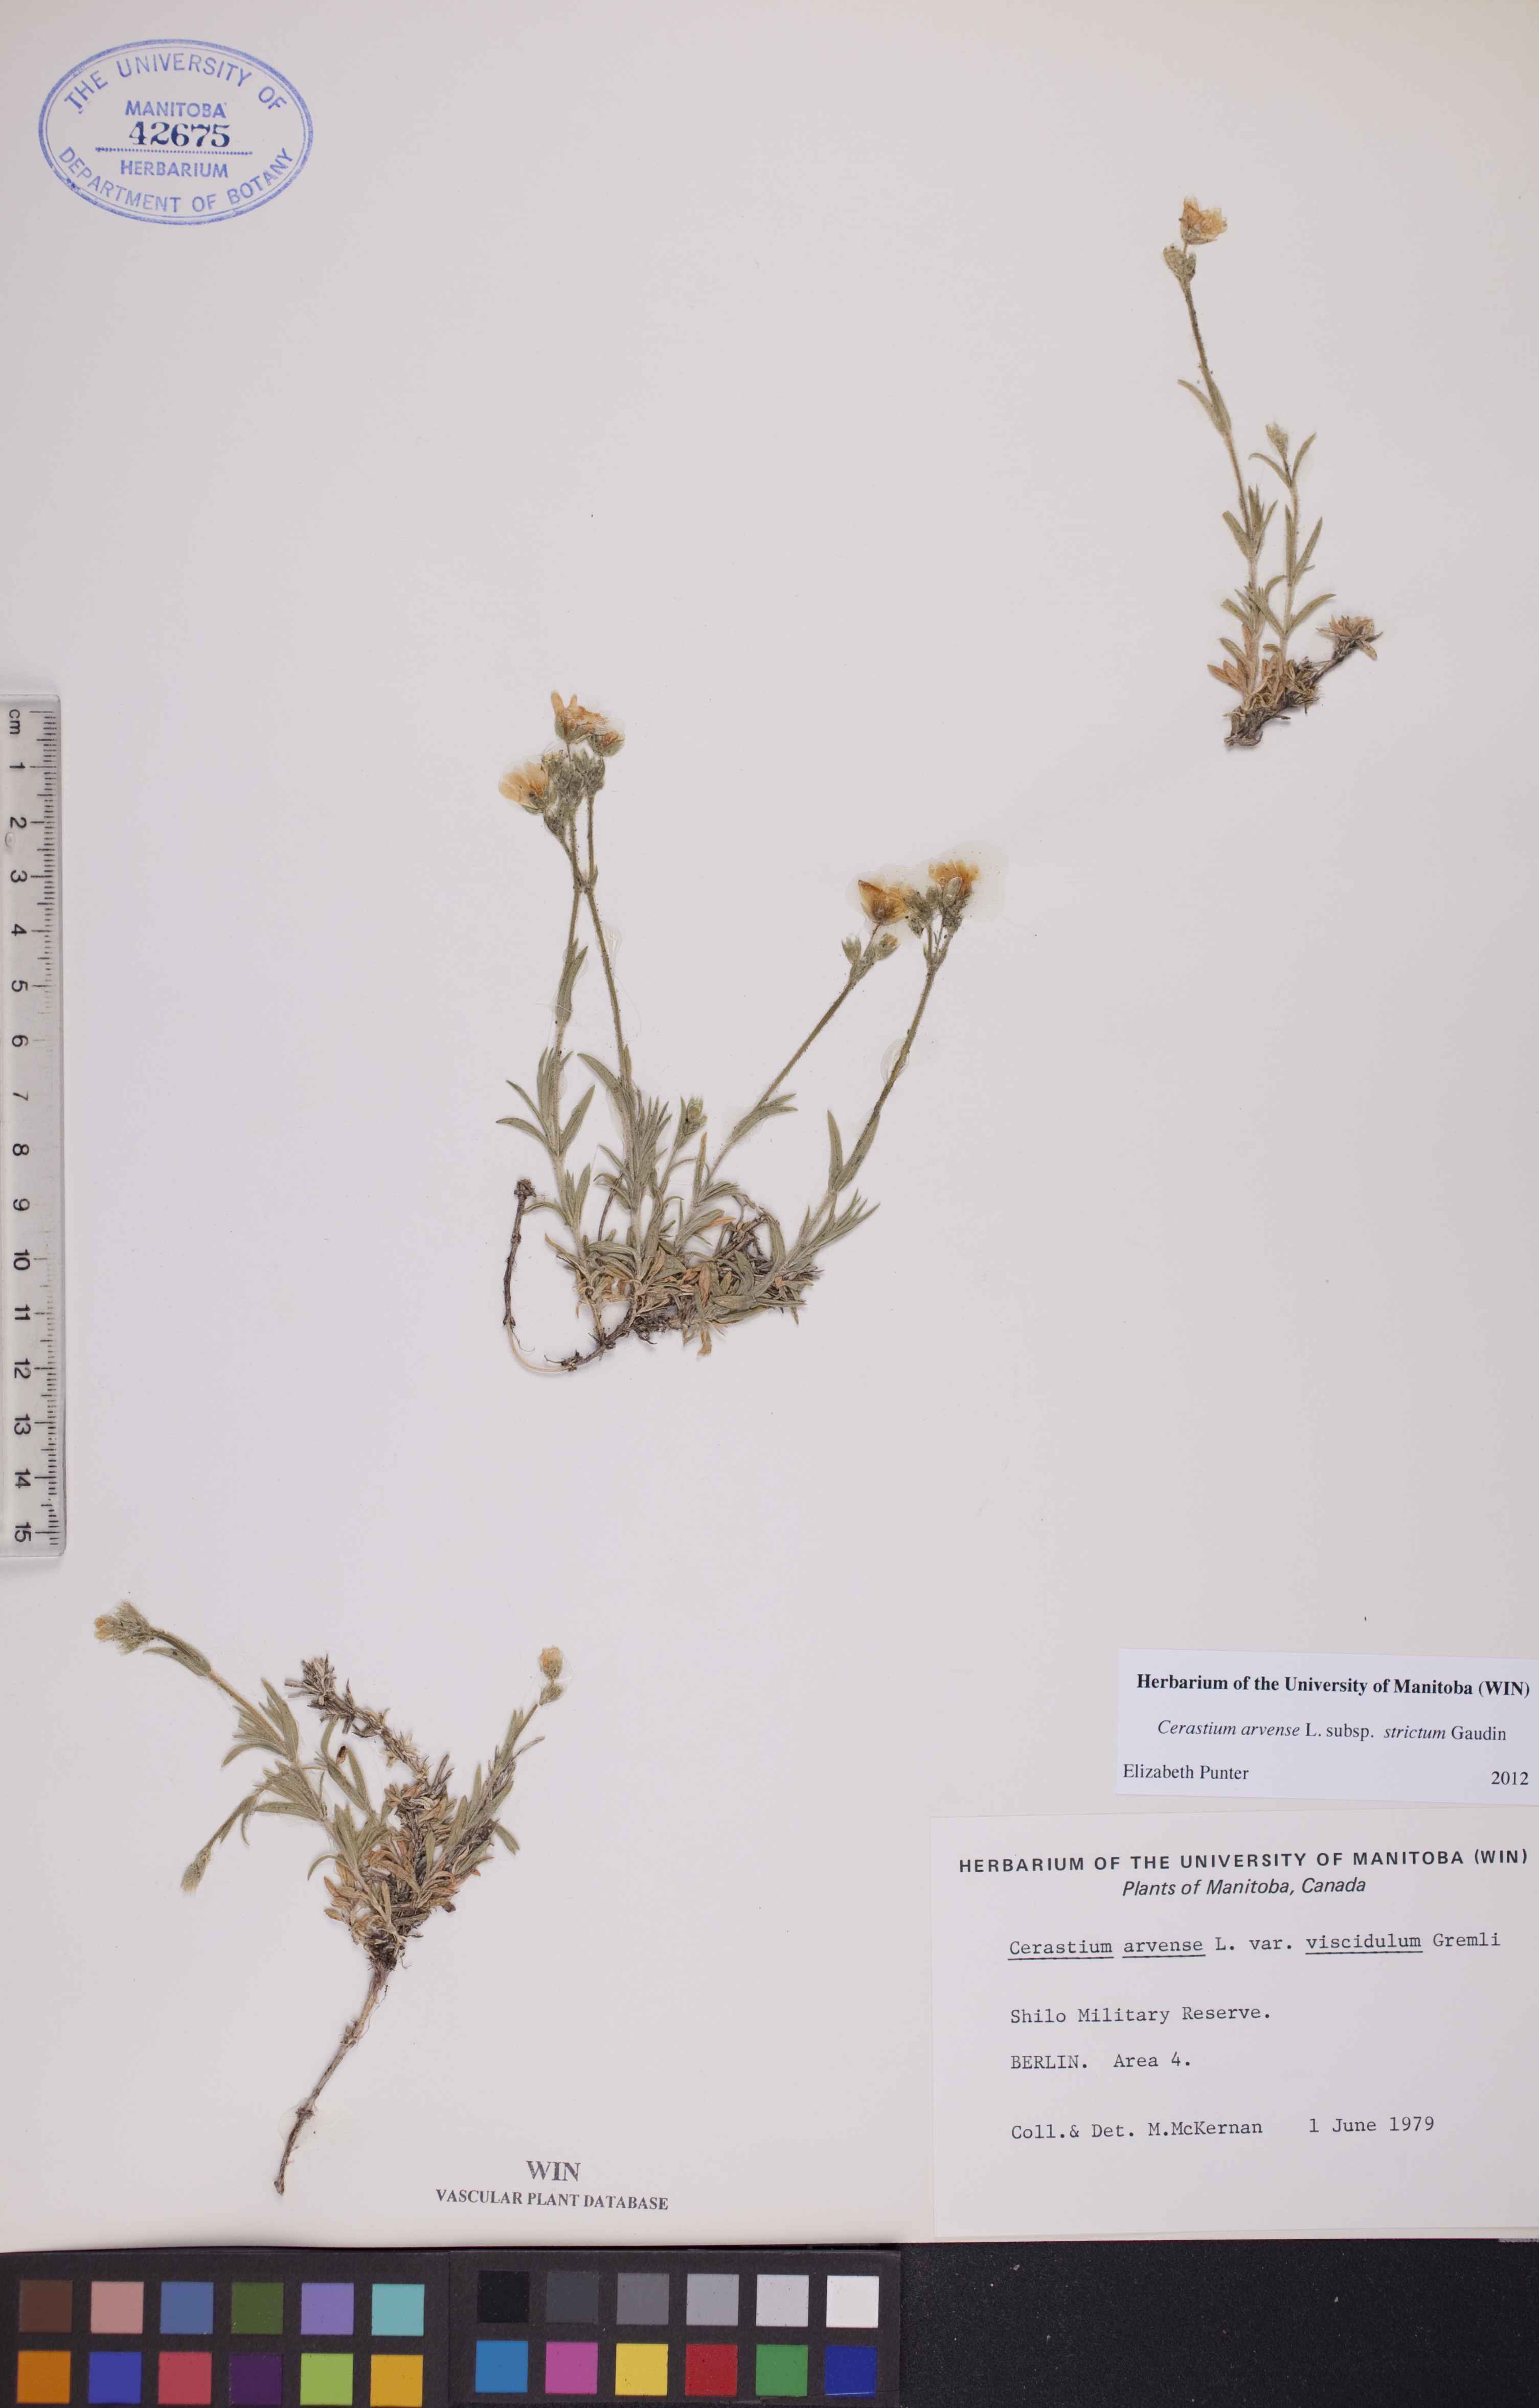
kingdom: Plantae
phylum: Tracheophyta
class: Magnoliopsida
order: Caryophyllales
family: Caryophyllaceae
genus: Cerastium
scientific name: Cerastium elongatum
